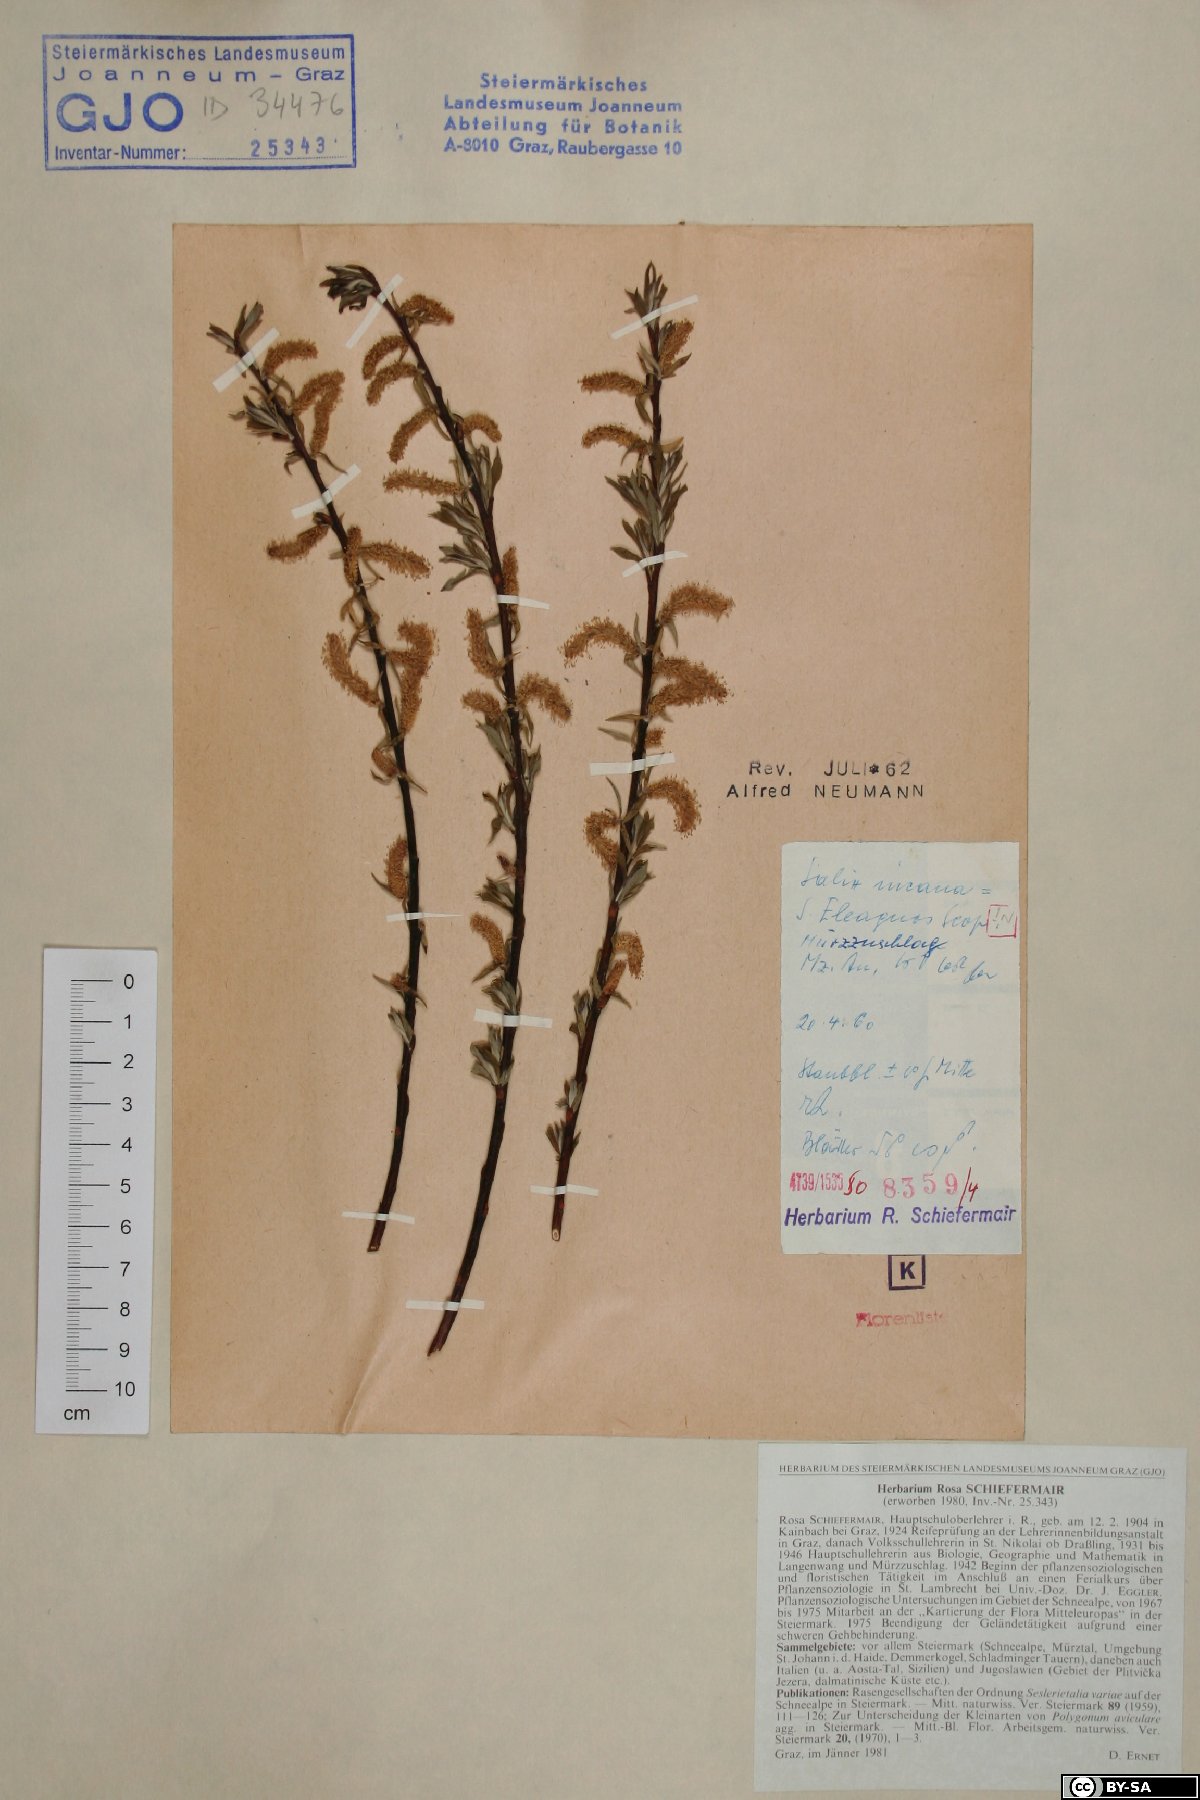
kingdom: Plantae
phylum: Tracheophyta
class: Magnoliopsida
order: Malpighiales
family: Salicaceae
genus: Salix
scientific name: Salix eleagnos
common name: Elaeagnus willow
